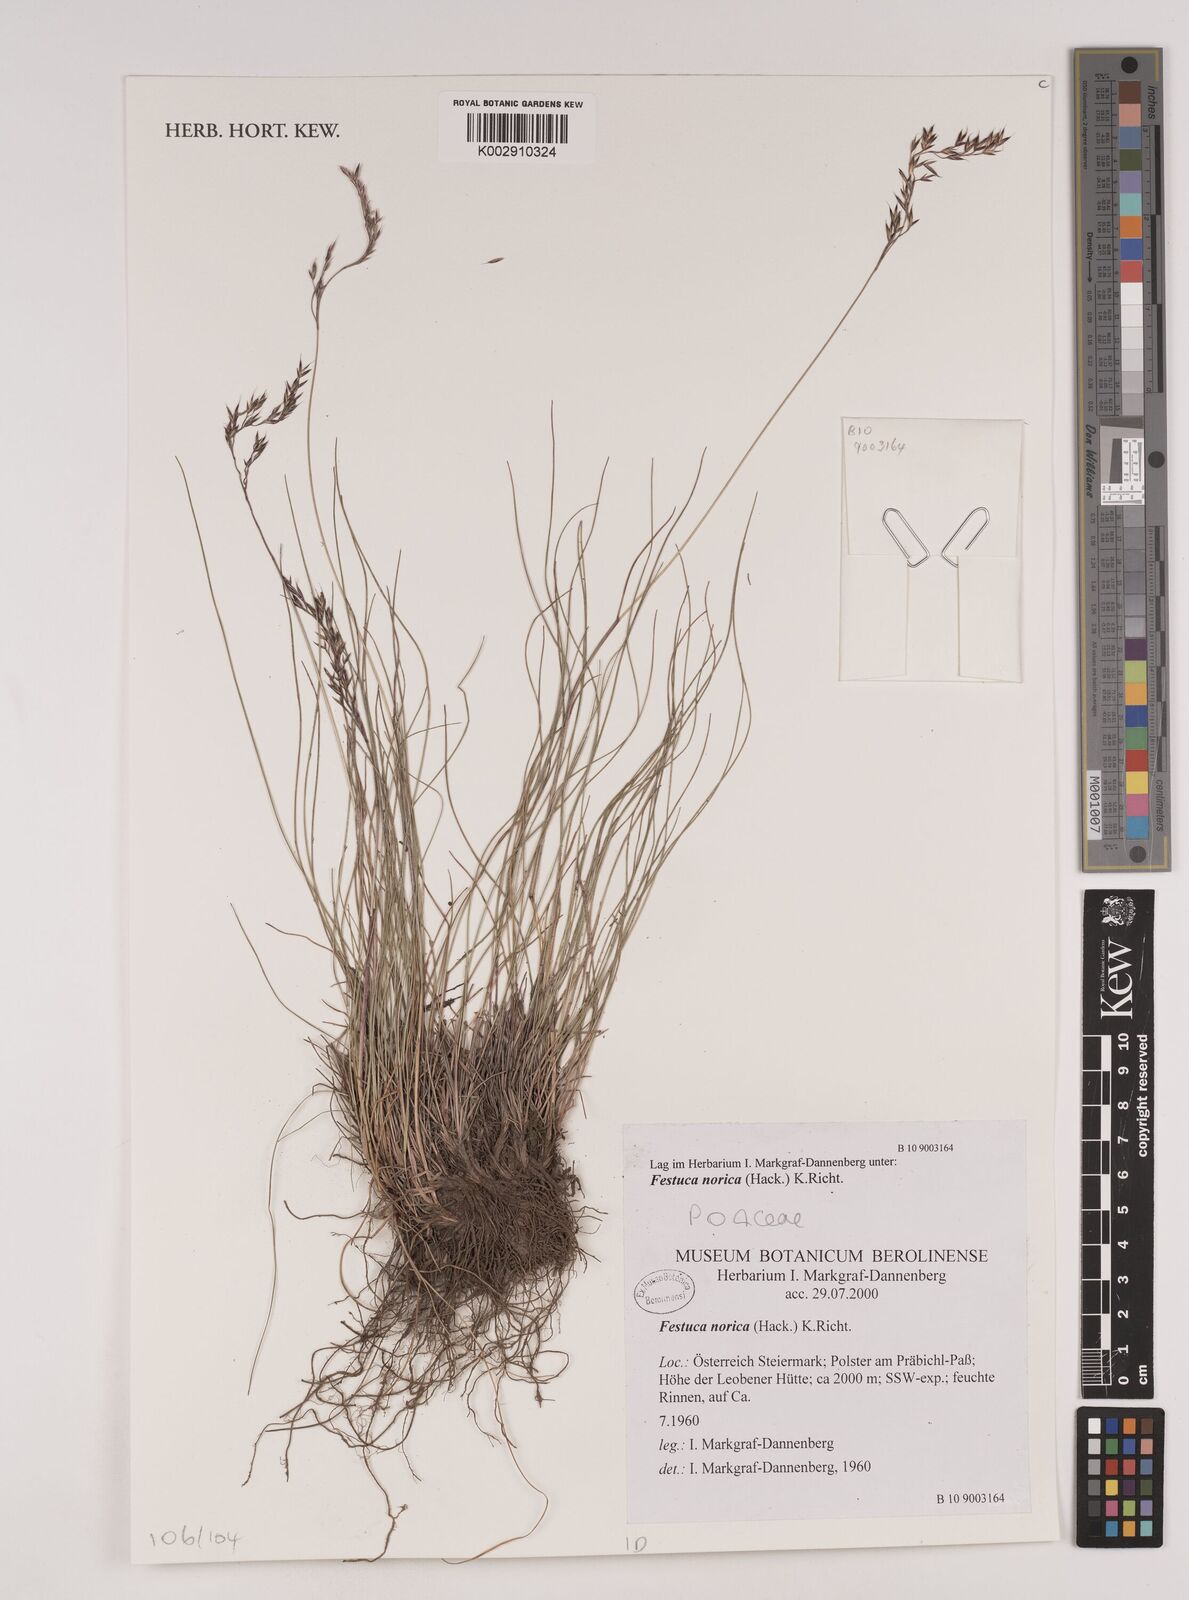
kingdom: Plantae
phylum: Tracheophyta
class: Liliopsida
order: Poales
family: Poaceae
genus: Festuca
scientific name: Festuca norica
